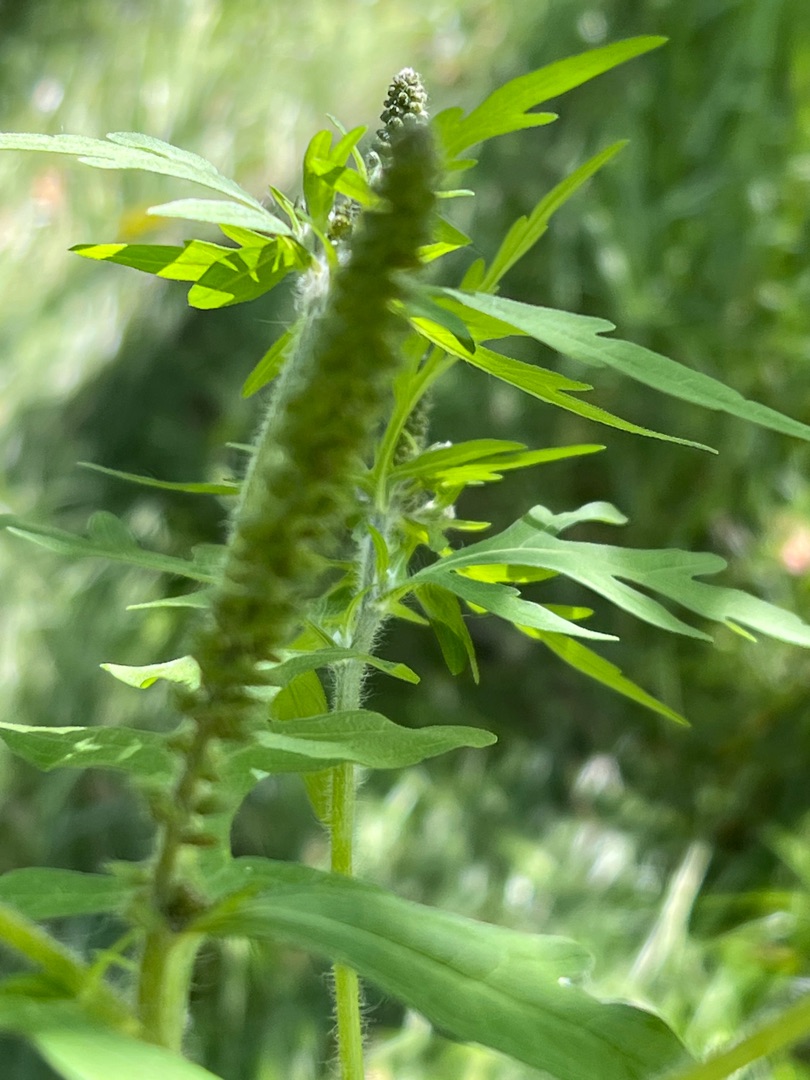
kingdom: Plantae
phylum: Tracheophyta
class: Magnoliopsida
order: Asterales
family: Asteraceae
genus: Ambrosia
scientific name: Ambrosia artemisiifolia
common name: Bynke-ambrosie
